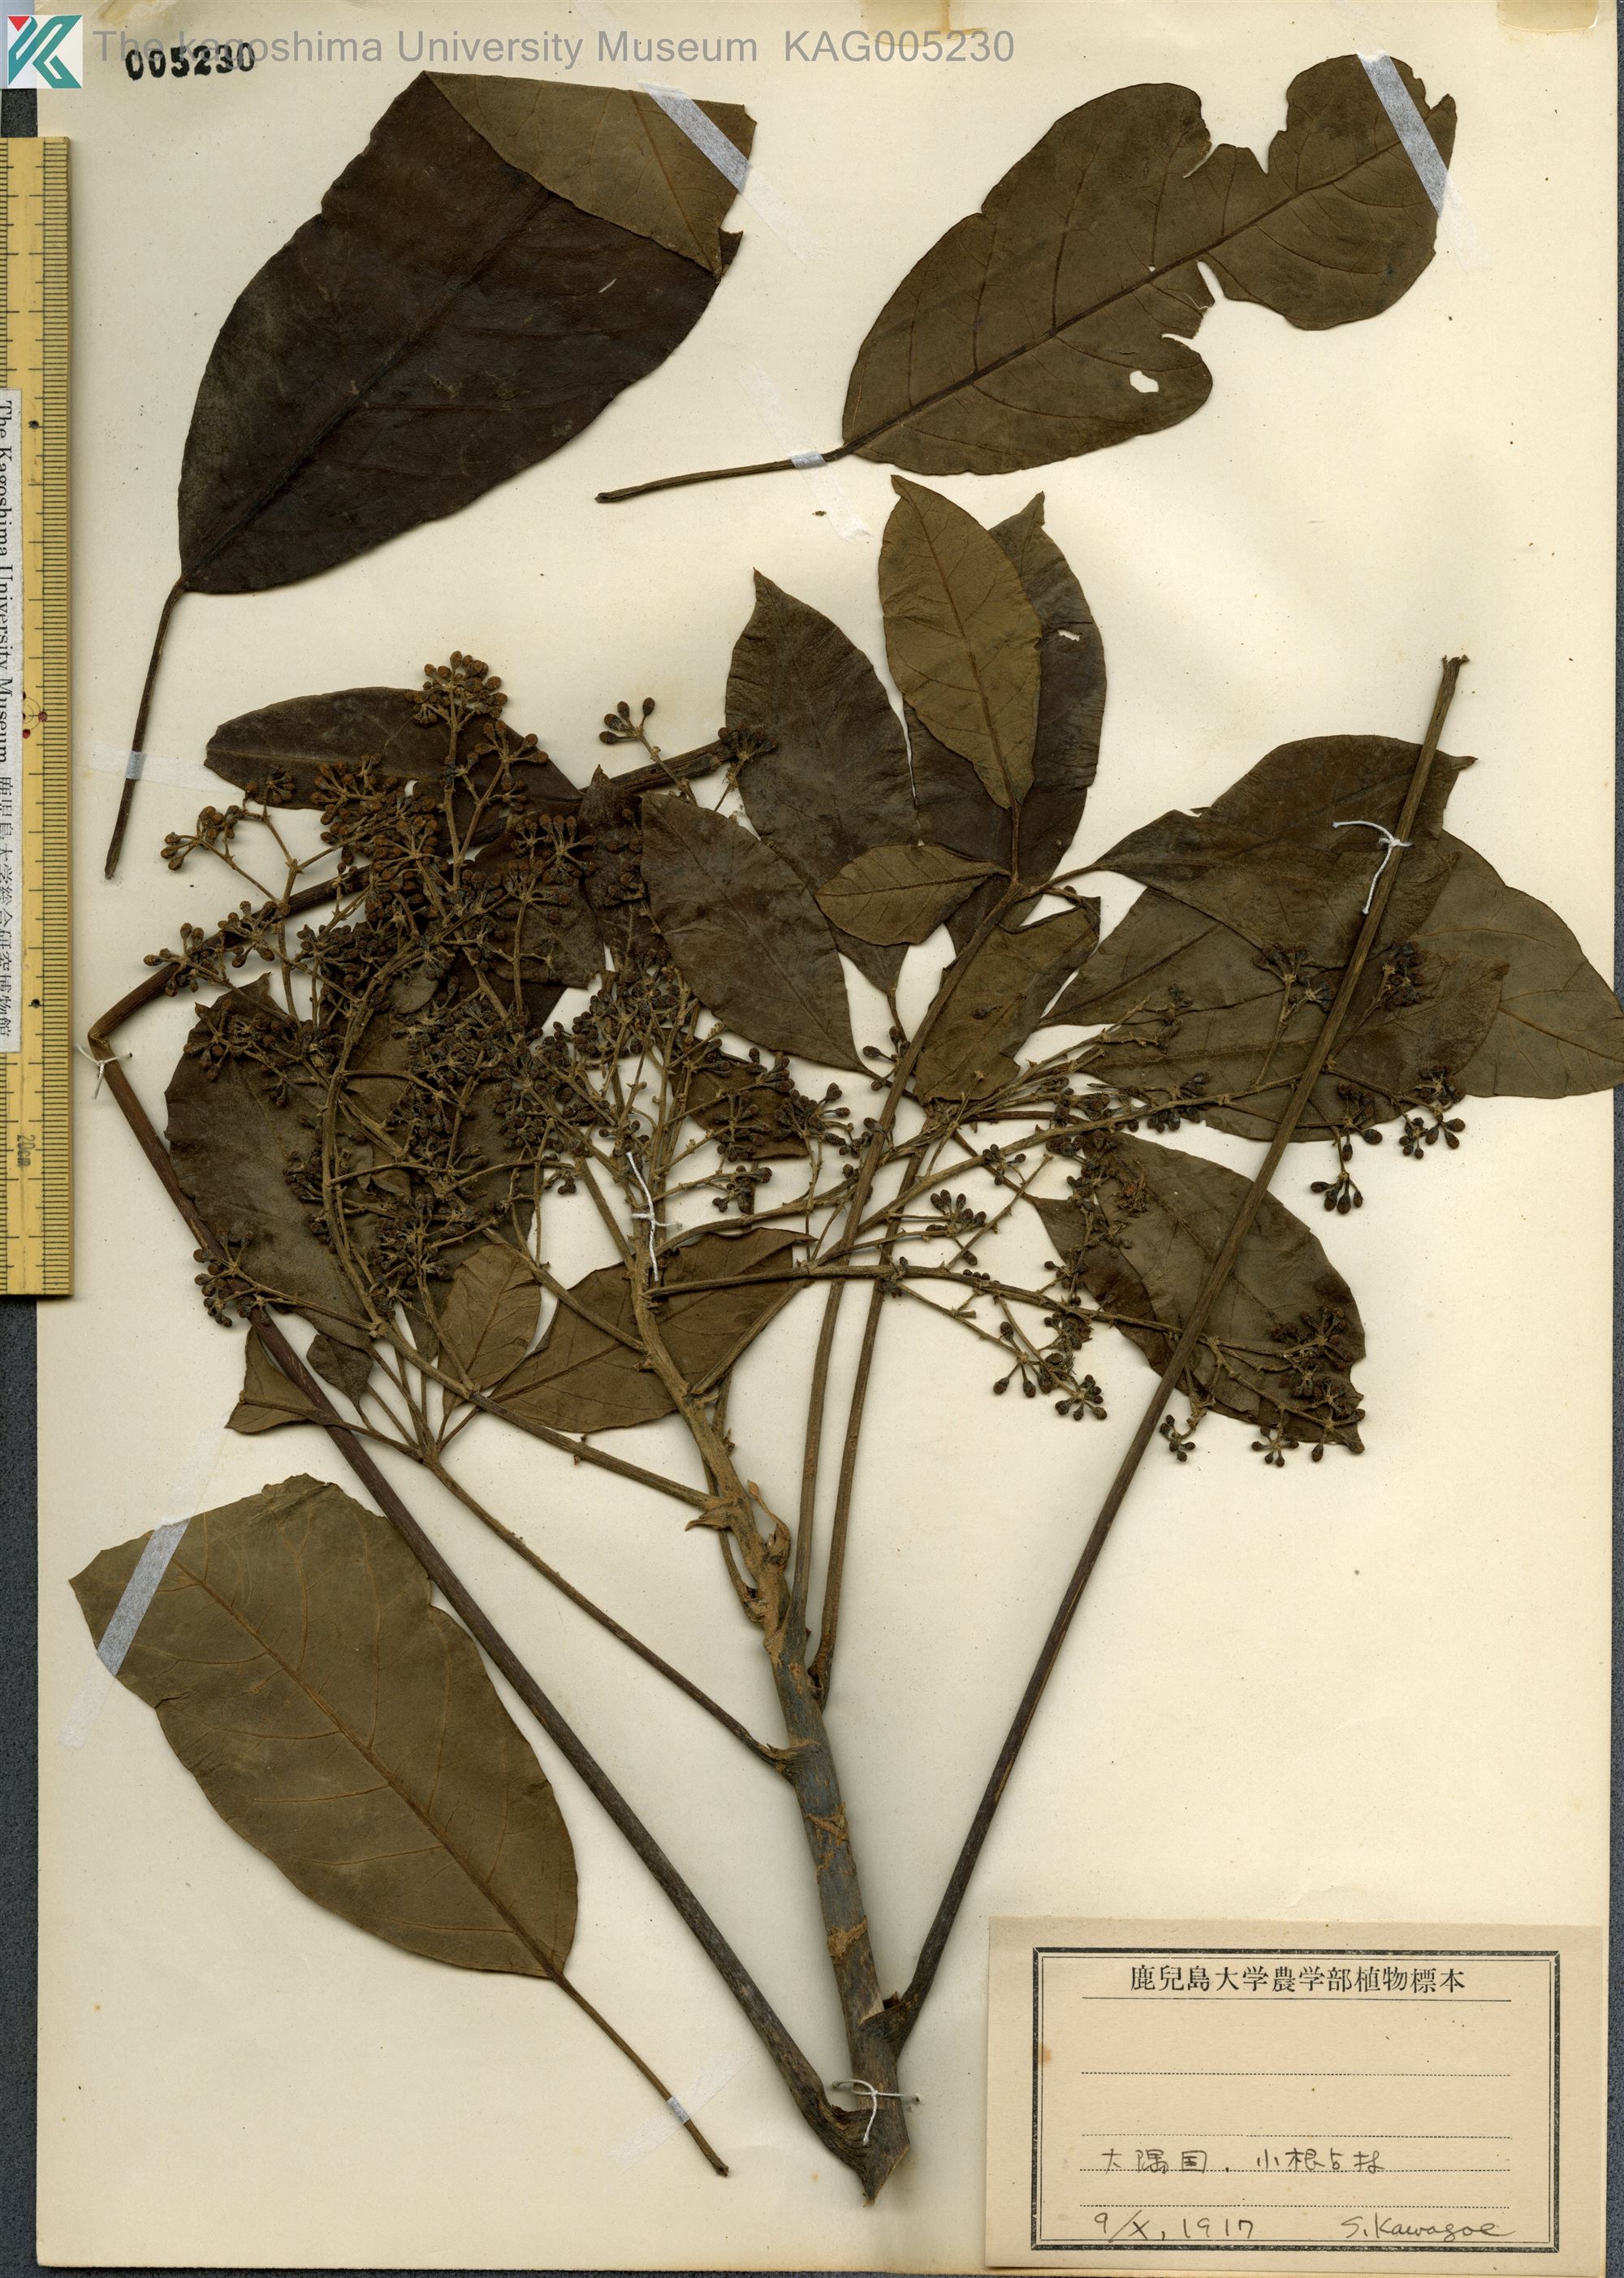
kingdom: Plantae
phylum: Tracheophyta
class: Magnoliopsida
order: Apiales
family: Araliaceae
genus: Heptapleurum
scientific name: Heptapleurum heptaphyllum
